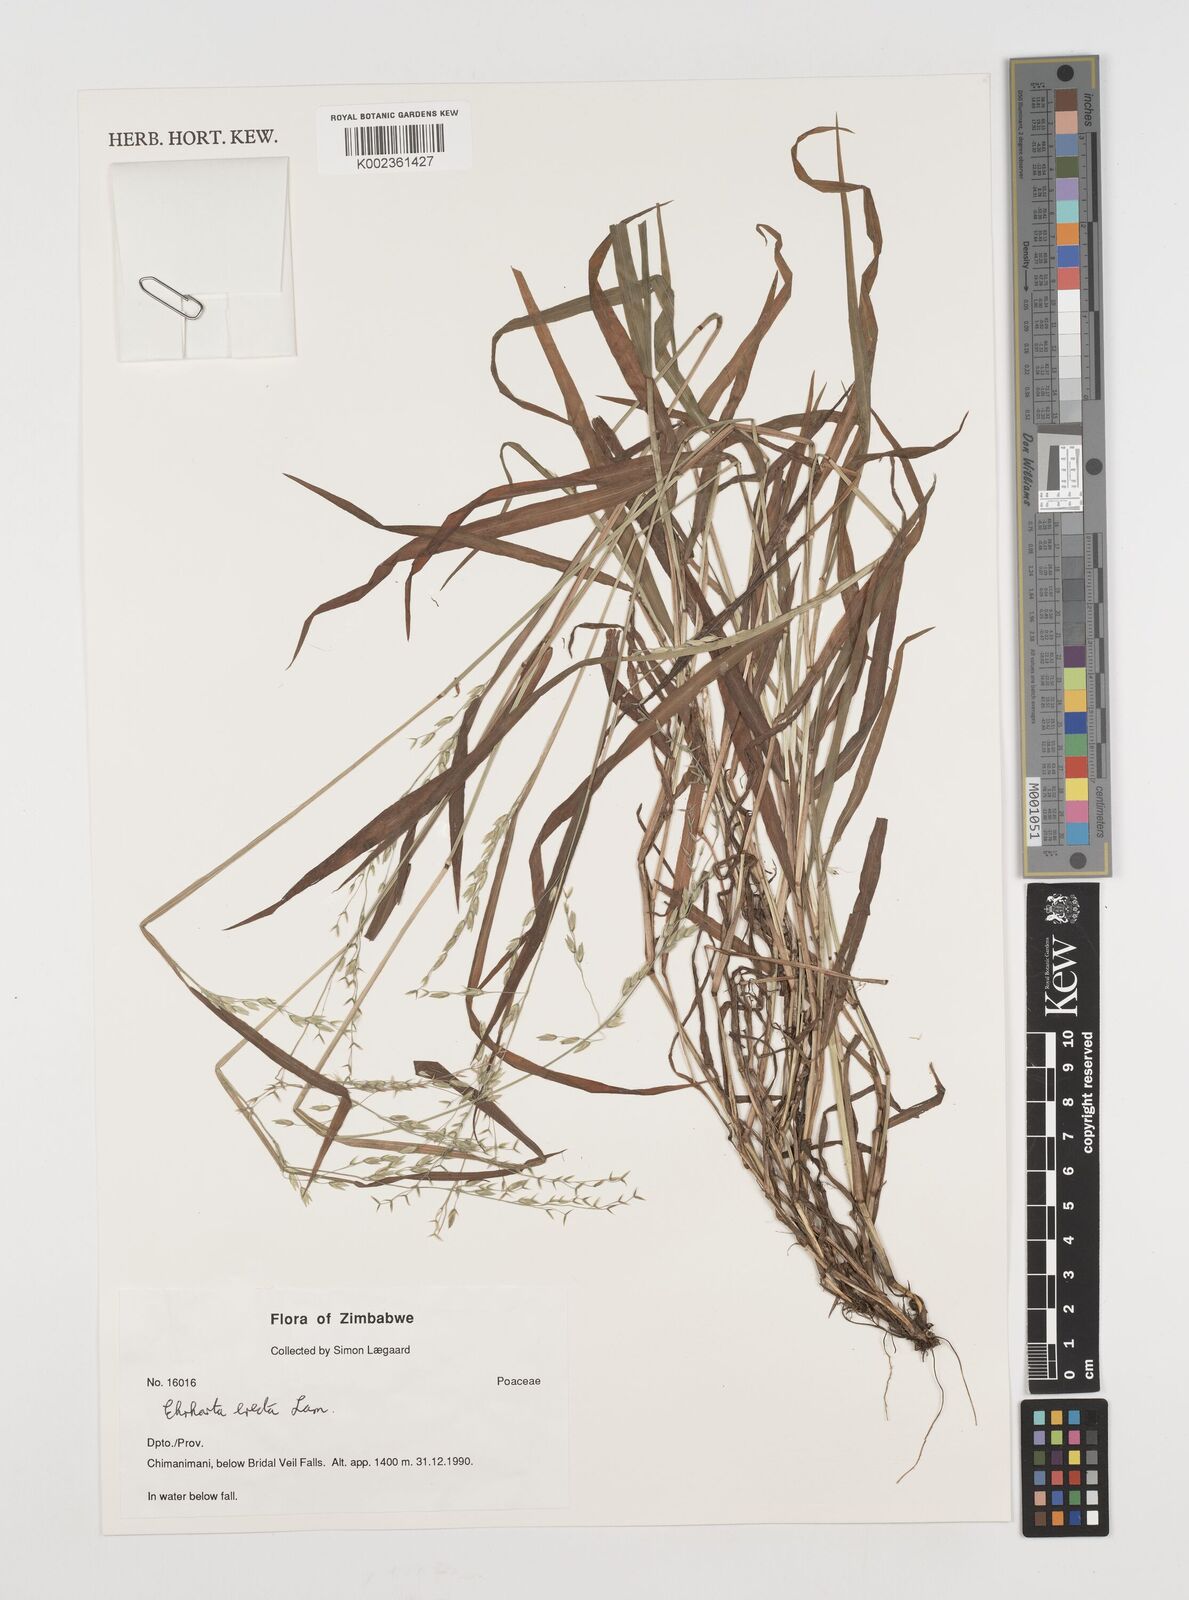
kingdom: Plantae
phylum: Tracheophyta
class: Liliopsida
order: Poales
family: Poaceae
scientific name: Poaceae
